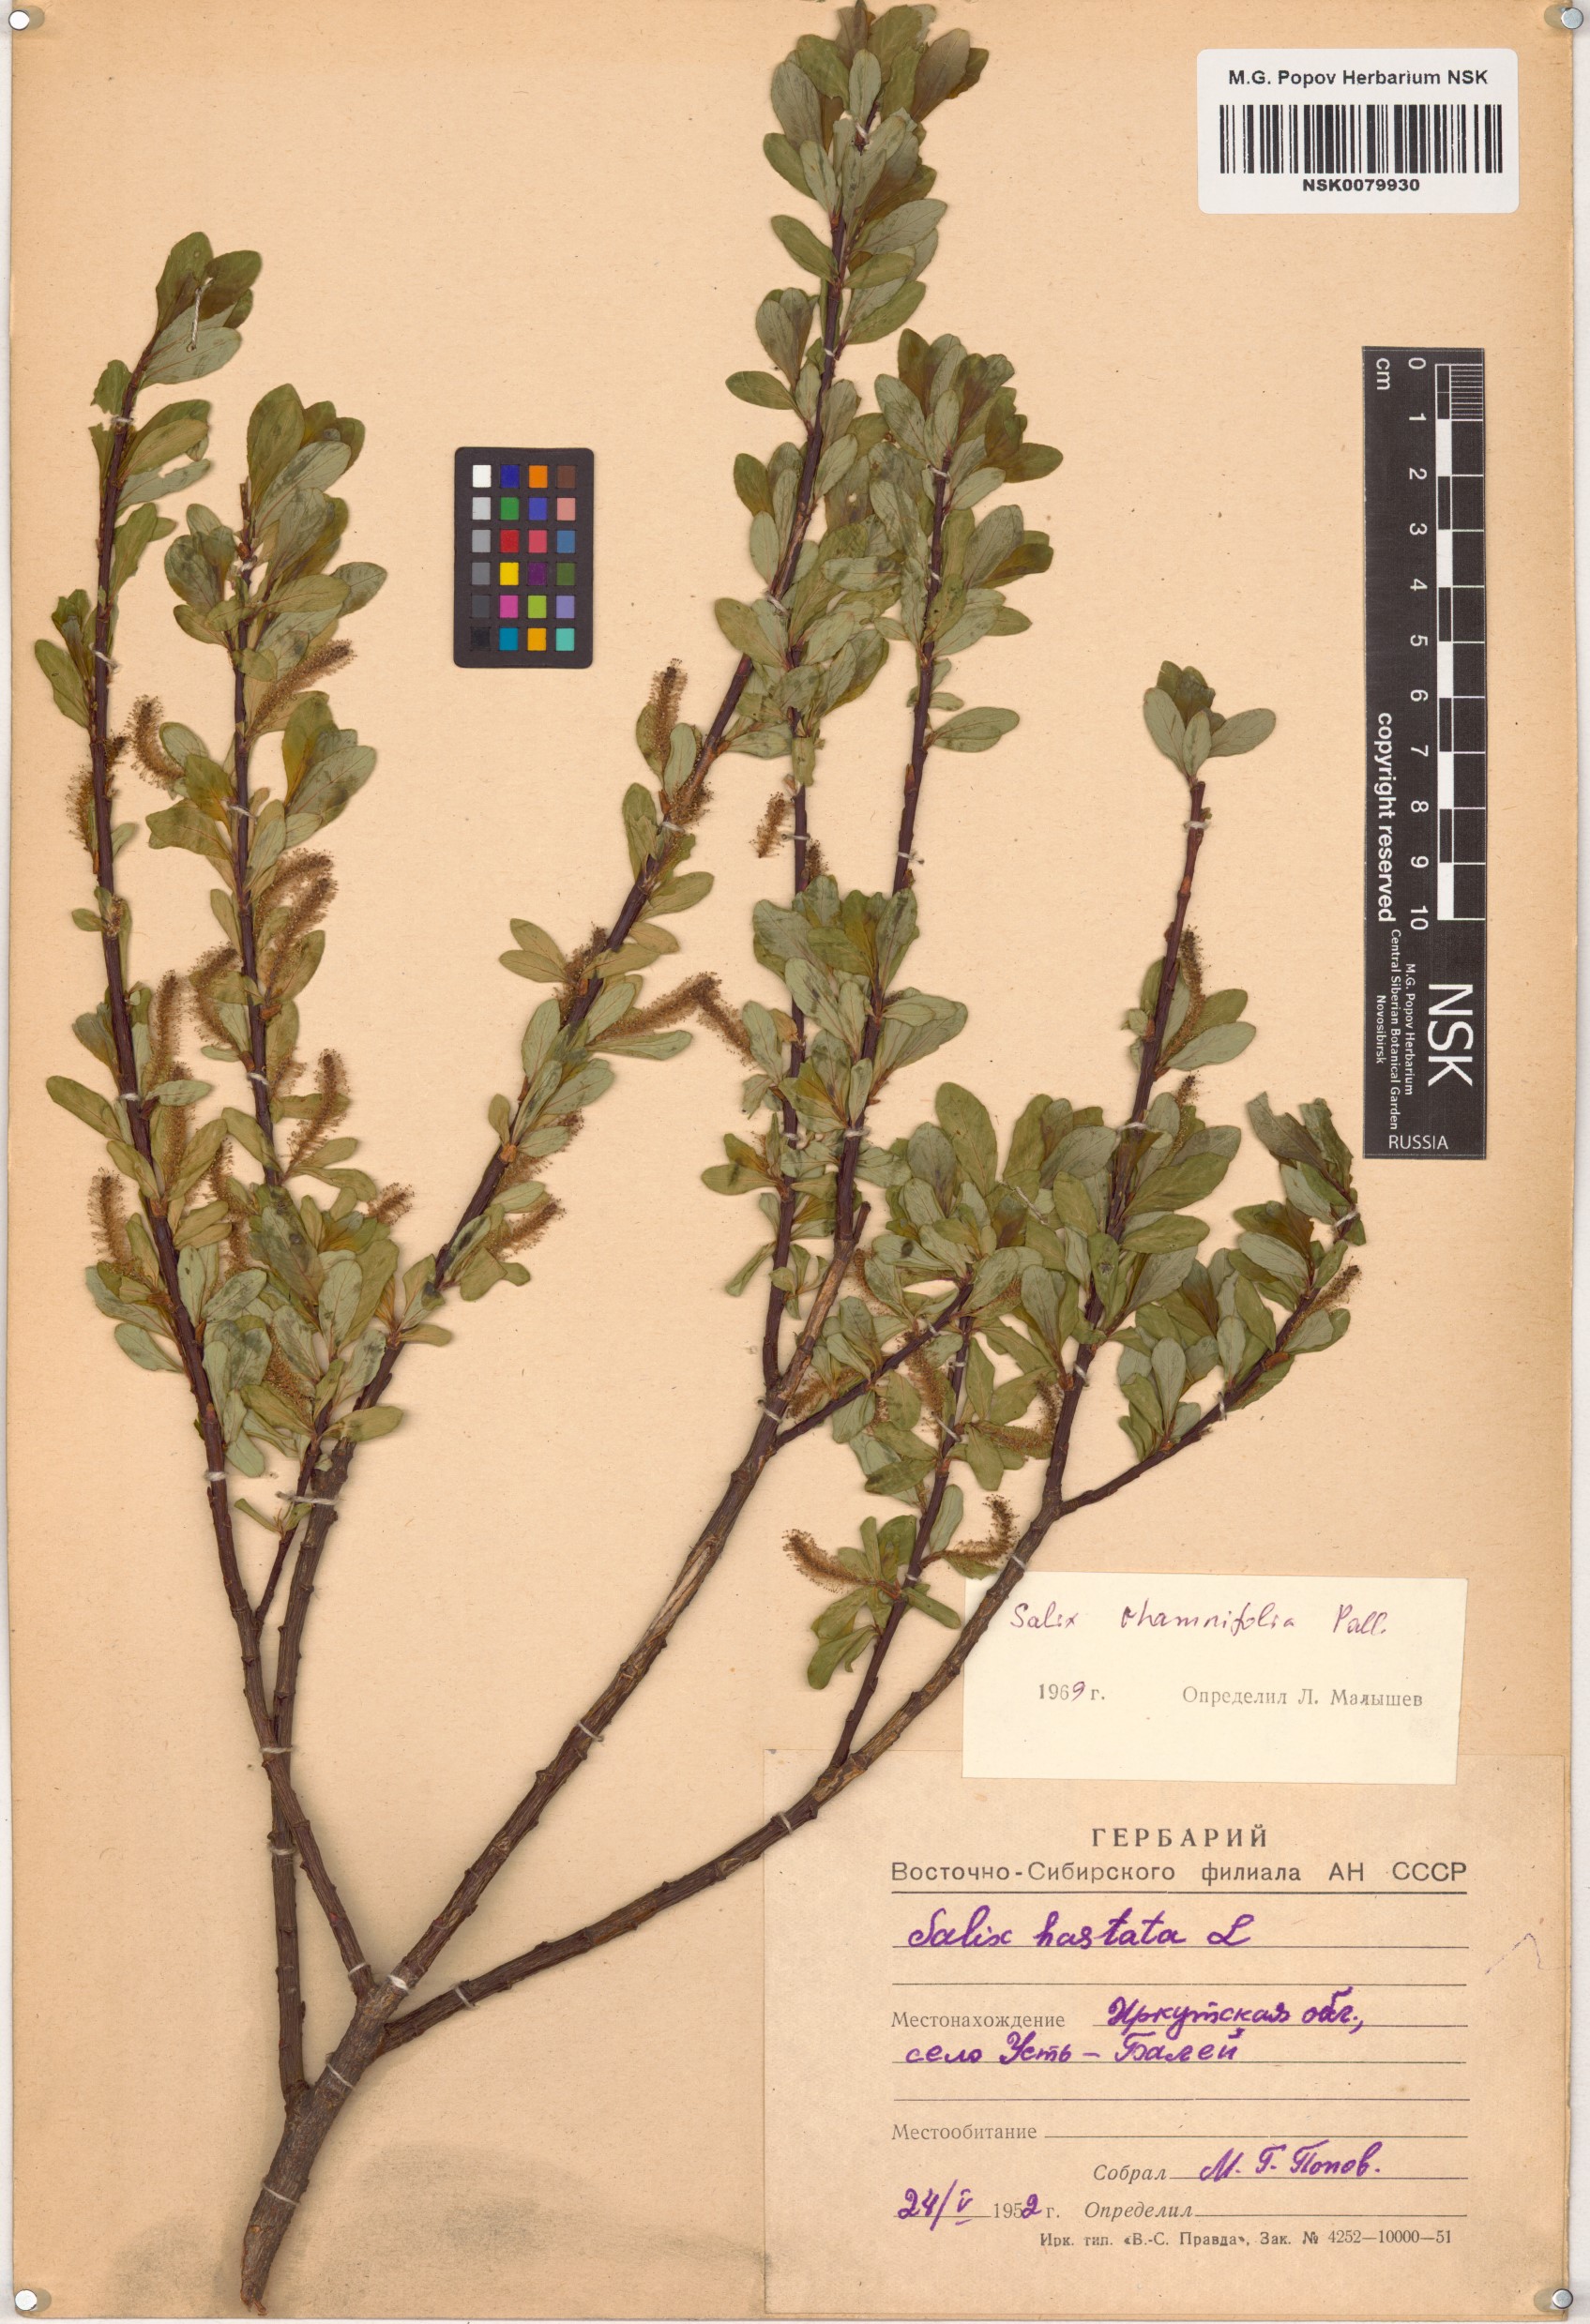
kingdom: Plantae
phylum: Tracheophyta
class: Magnoliopsida
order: Malpighiales
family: Salicaceae
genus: Salix
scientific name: Salix rhamnifolia
